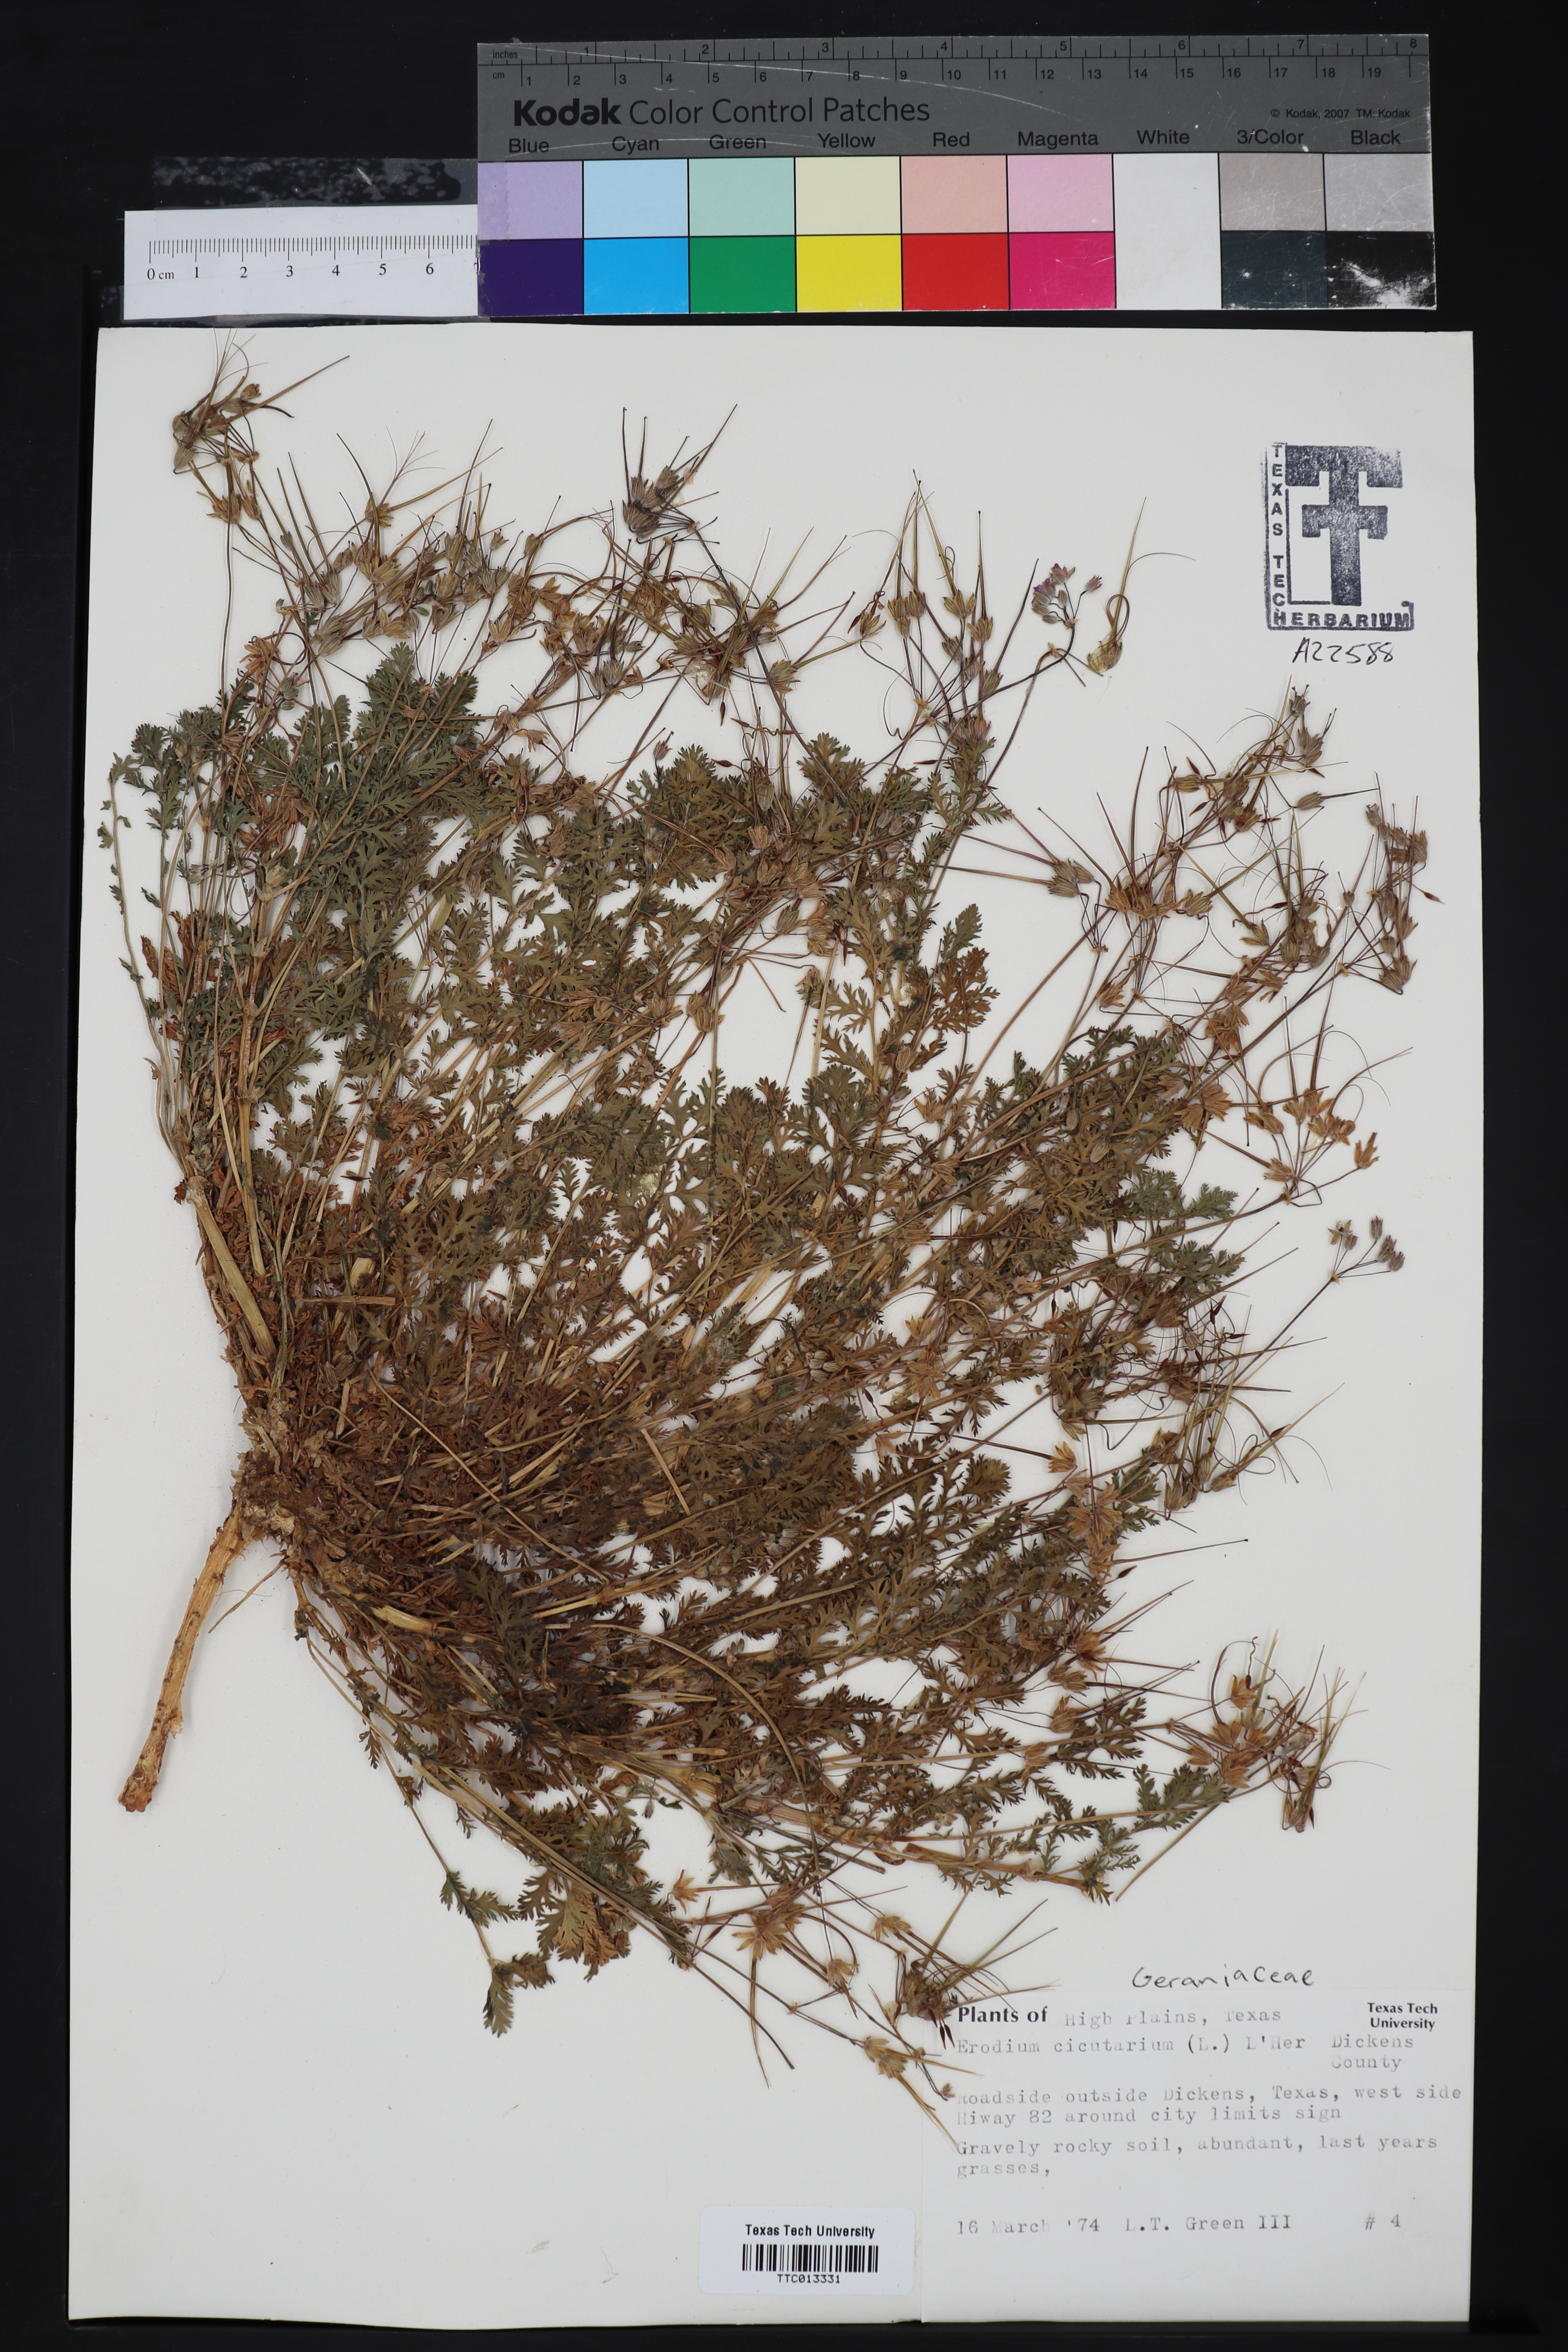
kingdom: Plantae
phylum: Tracheophyta
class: Magnoliopsida
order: Geraniales
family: Geraniaceae
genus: Erodium
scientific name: Erodium cicutarium
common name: Common stork's-bill
